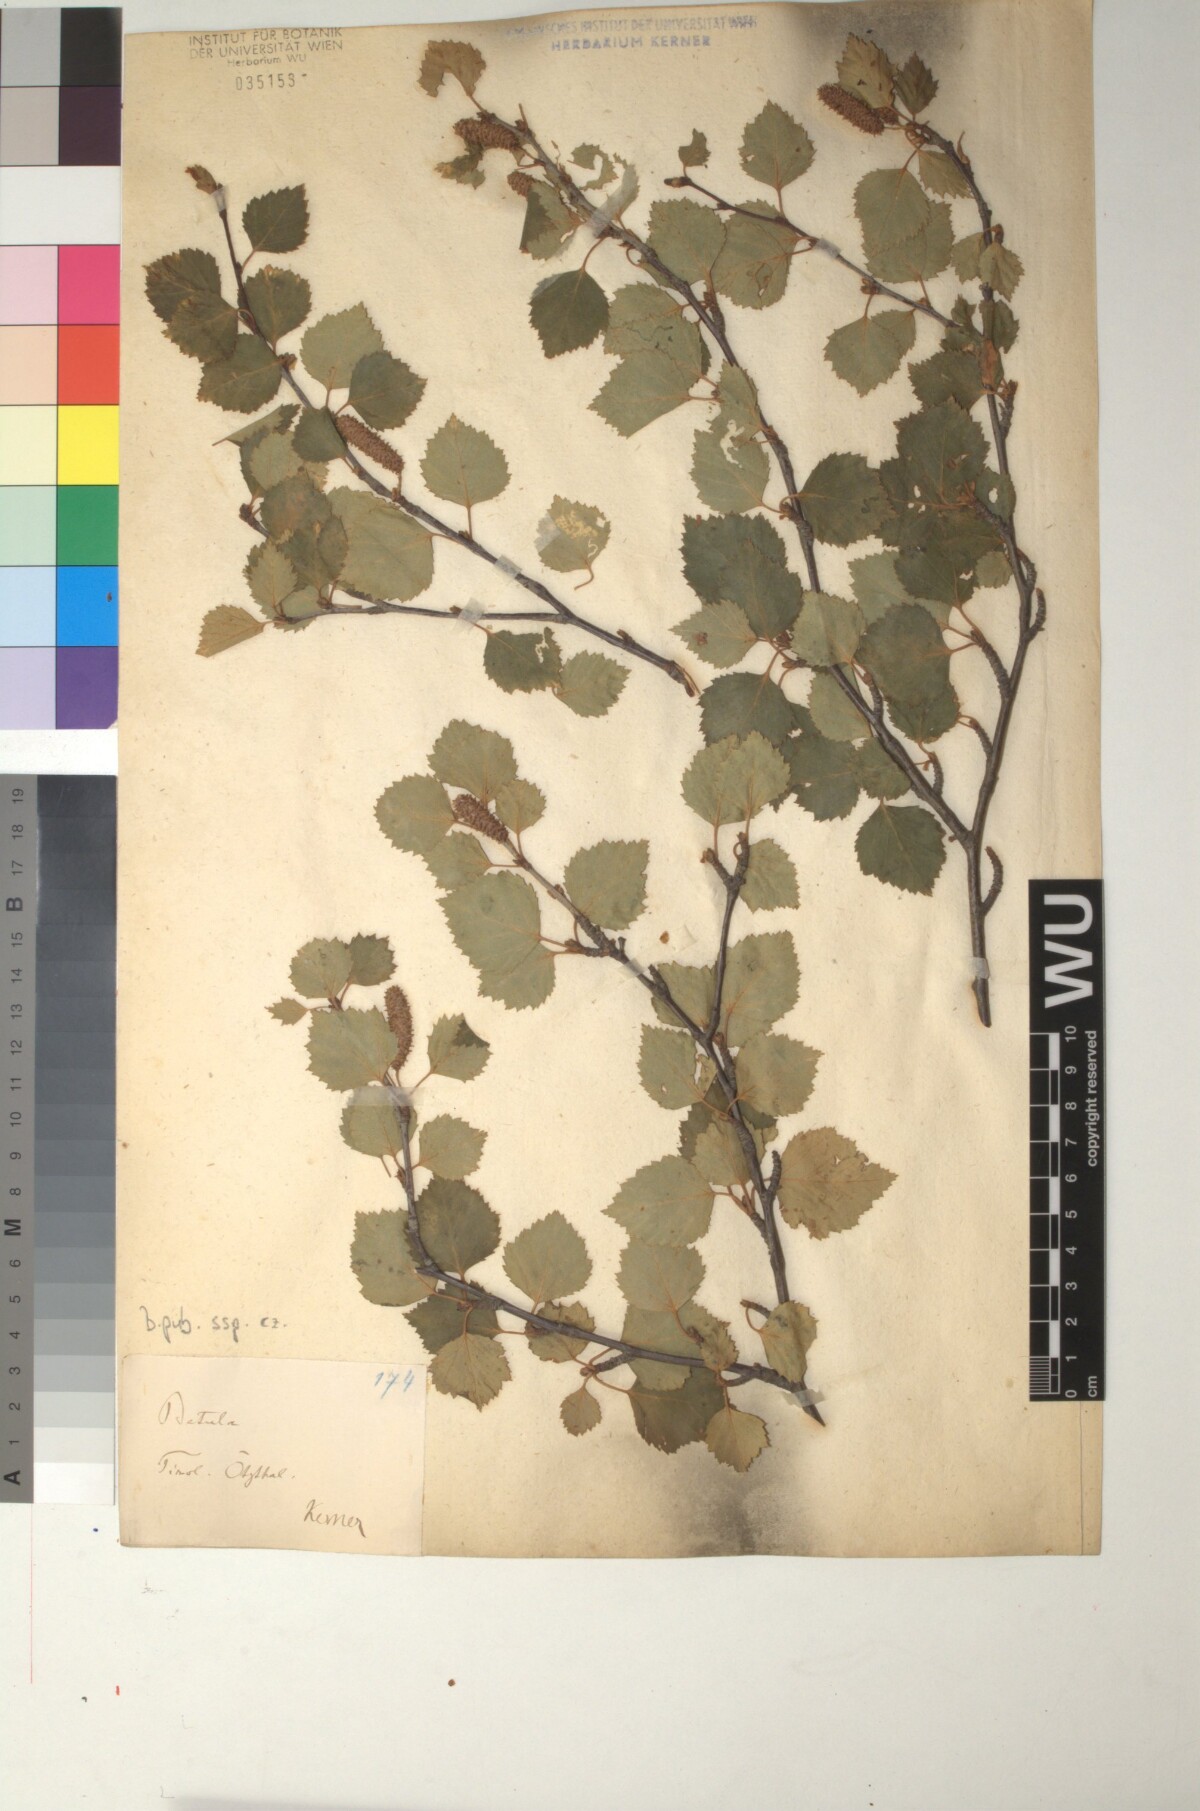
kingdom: Plantae
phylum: Tracheophyta
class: Magnoliopsida
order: Fagales
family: Betulaceae
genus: Betula
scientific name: Betula pubescens
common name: Downy birch
